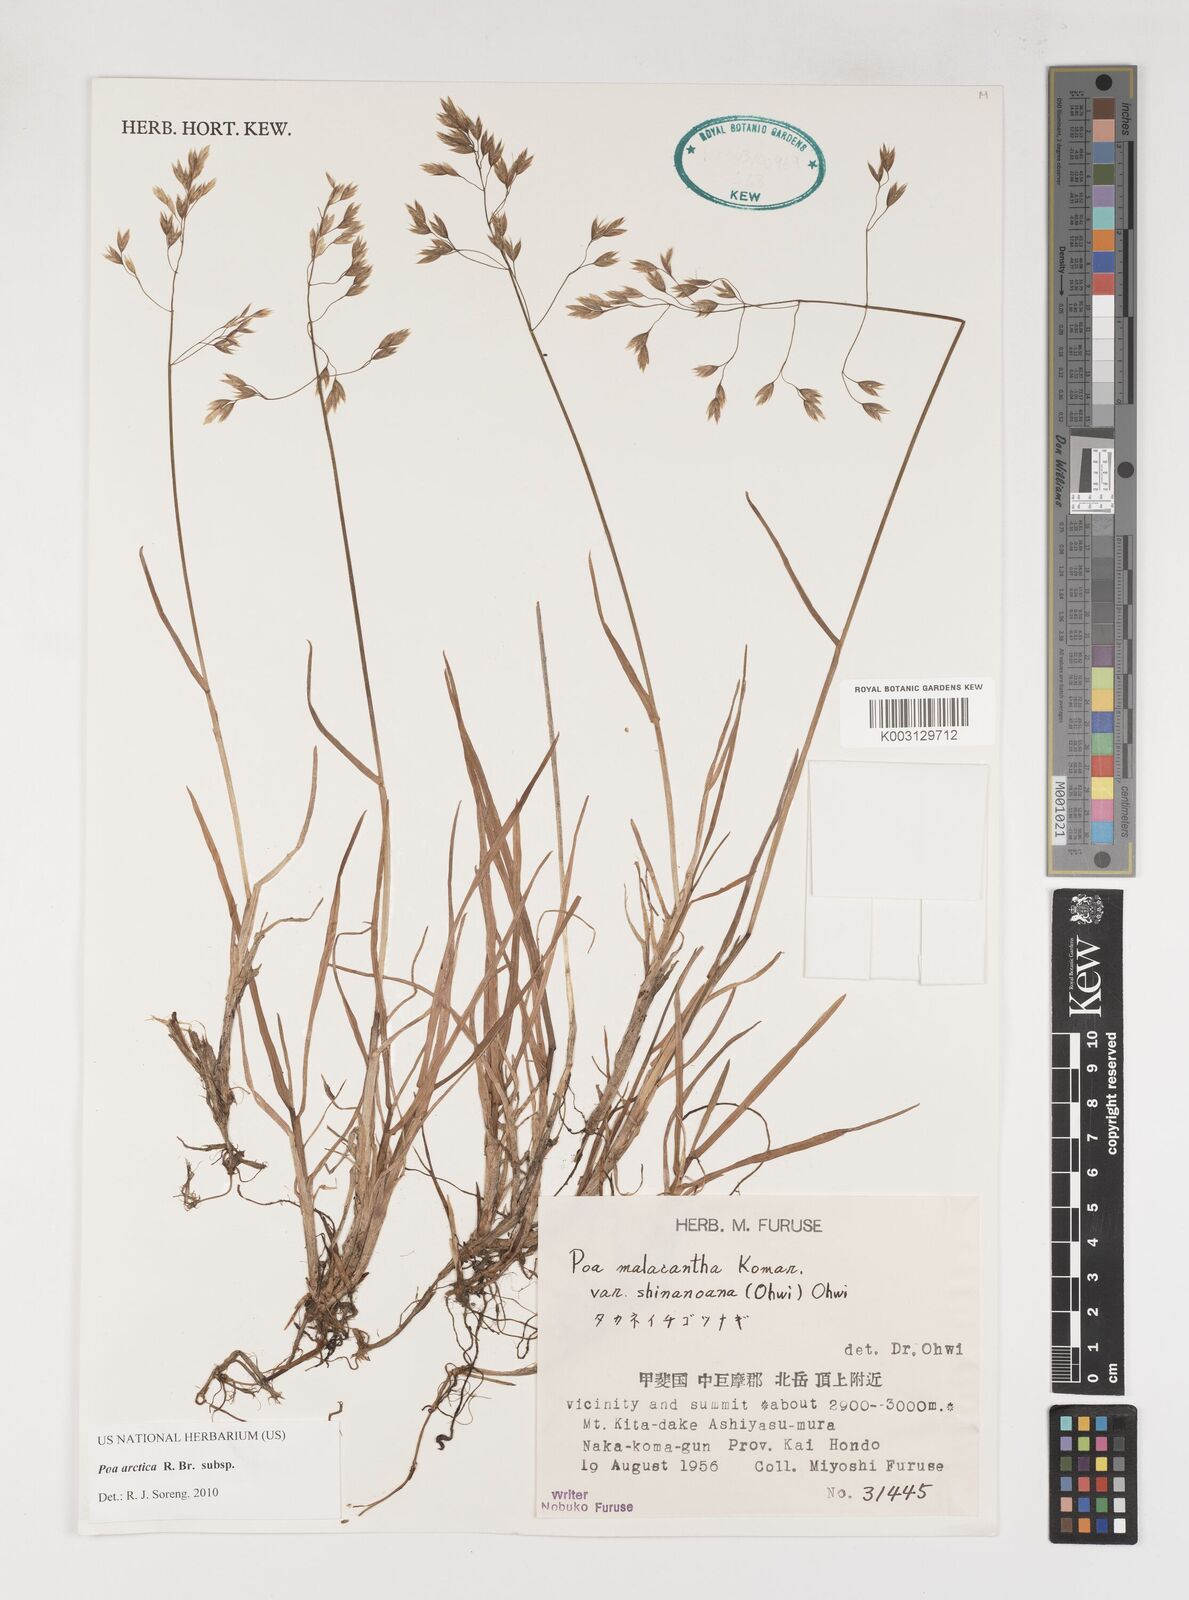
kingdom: Plantae
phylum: Tracheophyta
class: Liliopsida
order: Poales
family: Poaceae
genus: Poa
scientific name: Poa arctica
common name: Arctic bluegrass
